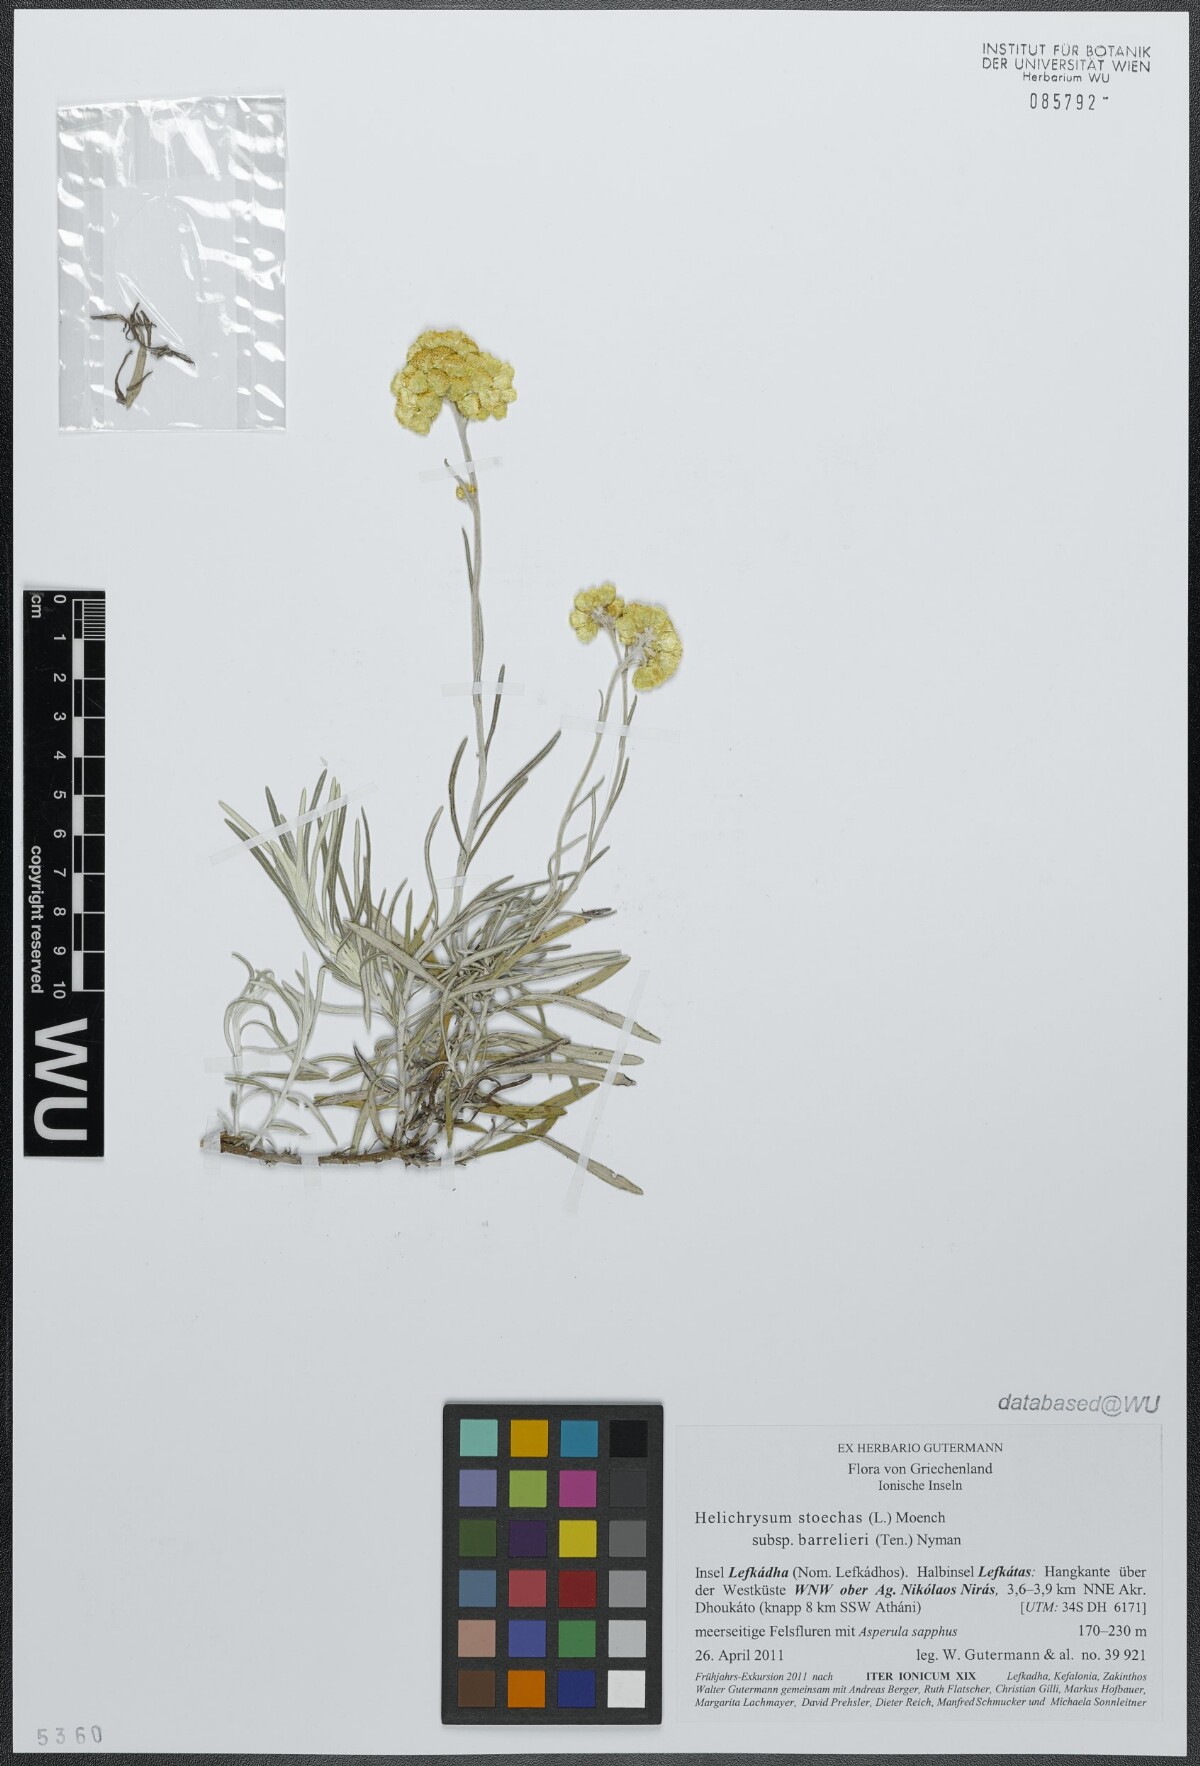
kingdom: Plantae
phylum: Tracheophyta
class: Magnoliopsida
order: Asterales
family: Asteraceae
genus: Helichrysum
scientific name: Helichrysum stoechas
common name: Goldilocks
